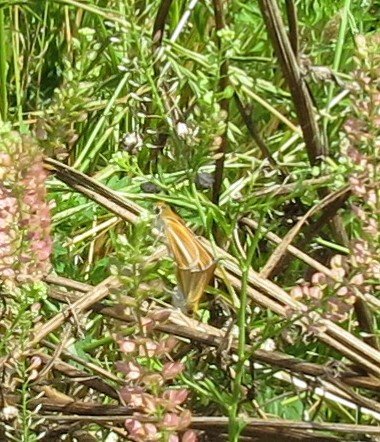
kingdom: Animalia
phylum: Arthropoda
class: Insecta
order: Lepidoptera
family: Hesperiidae
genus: Copaeodes
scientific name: Copaeodes minima
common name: Southern Skipperling
